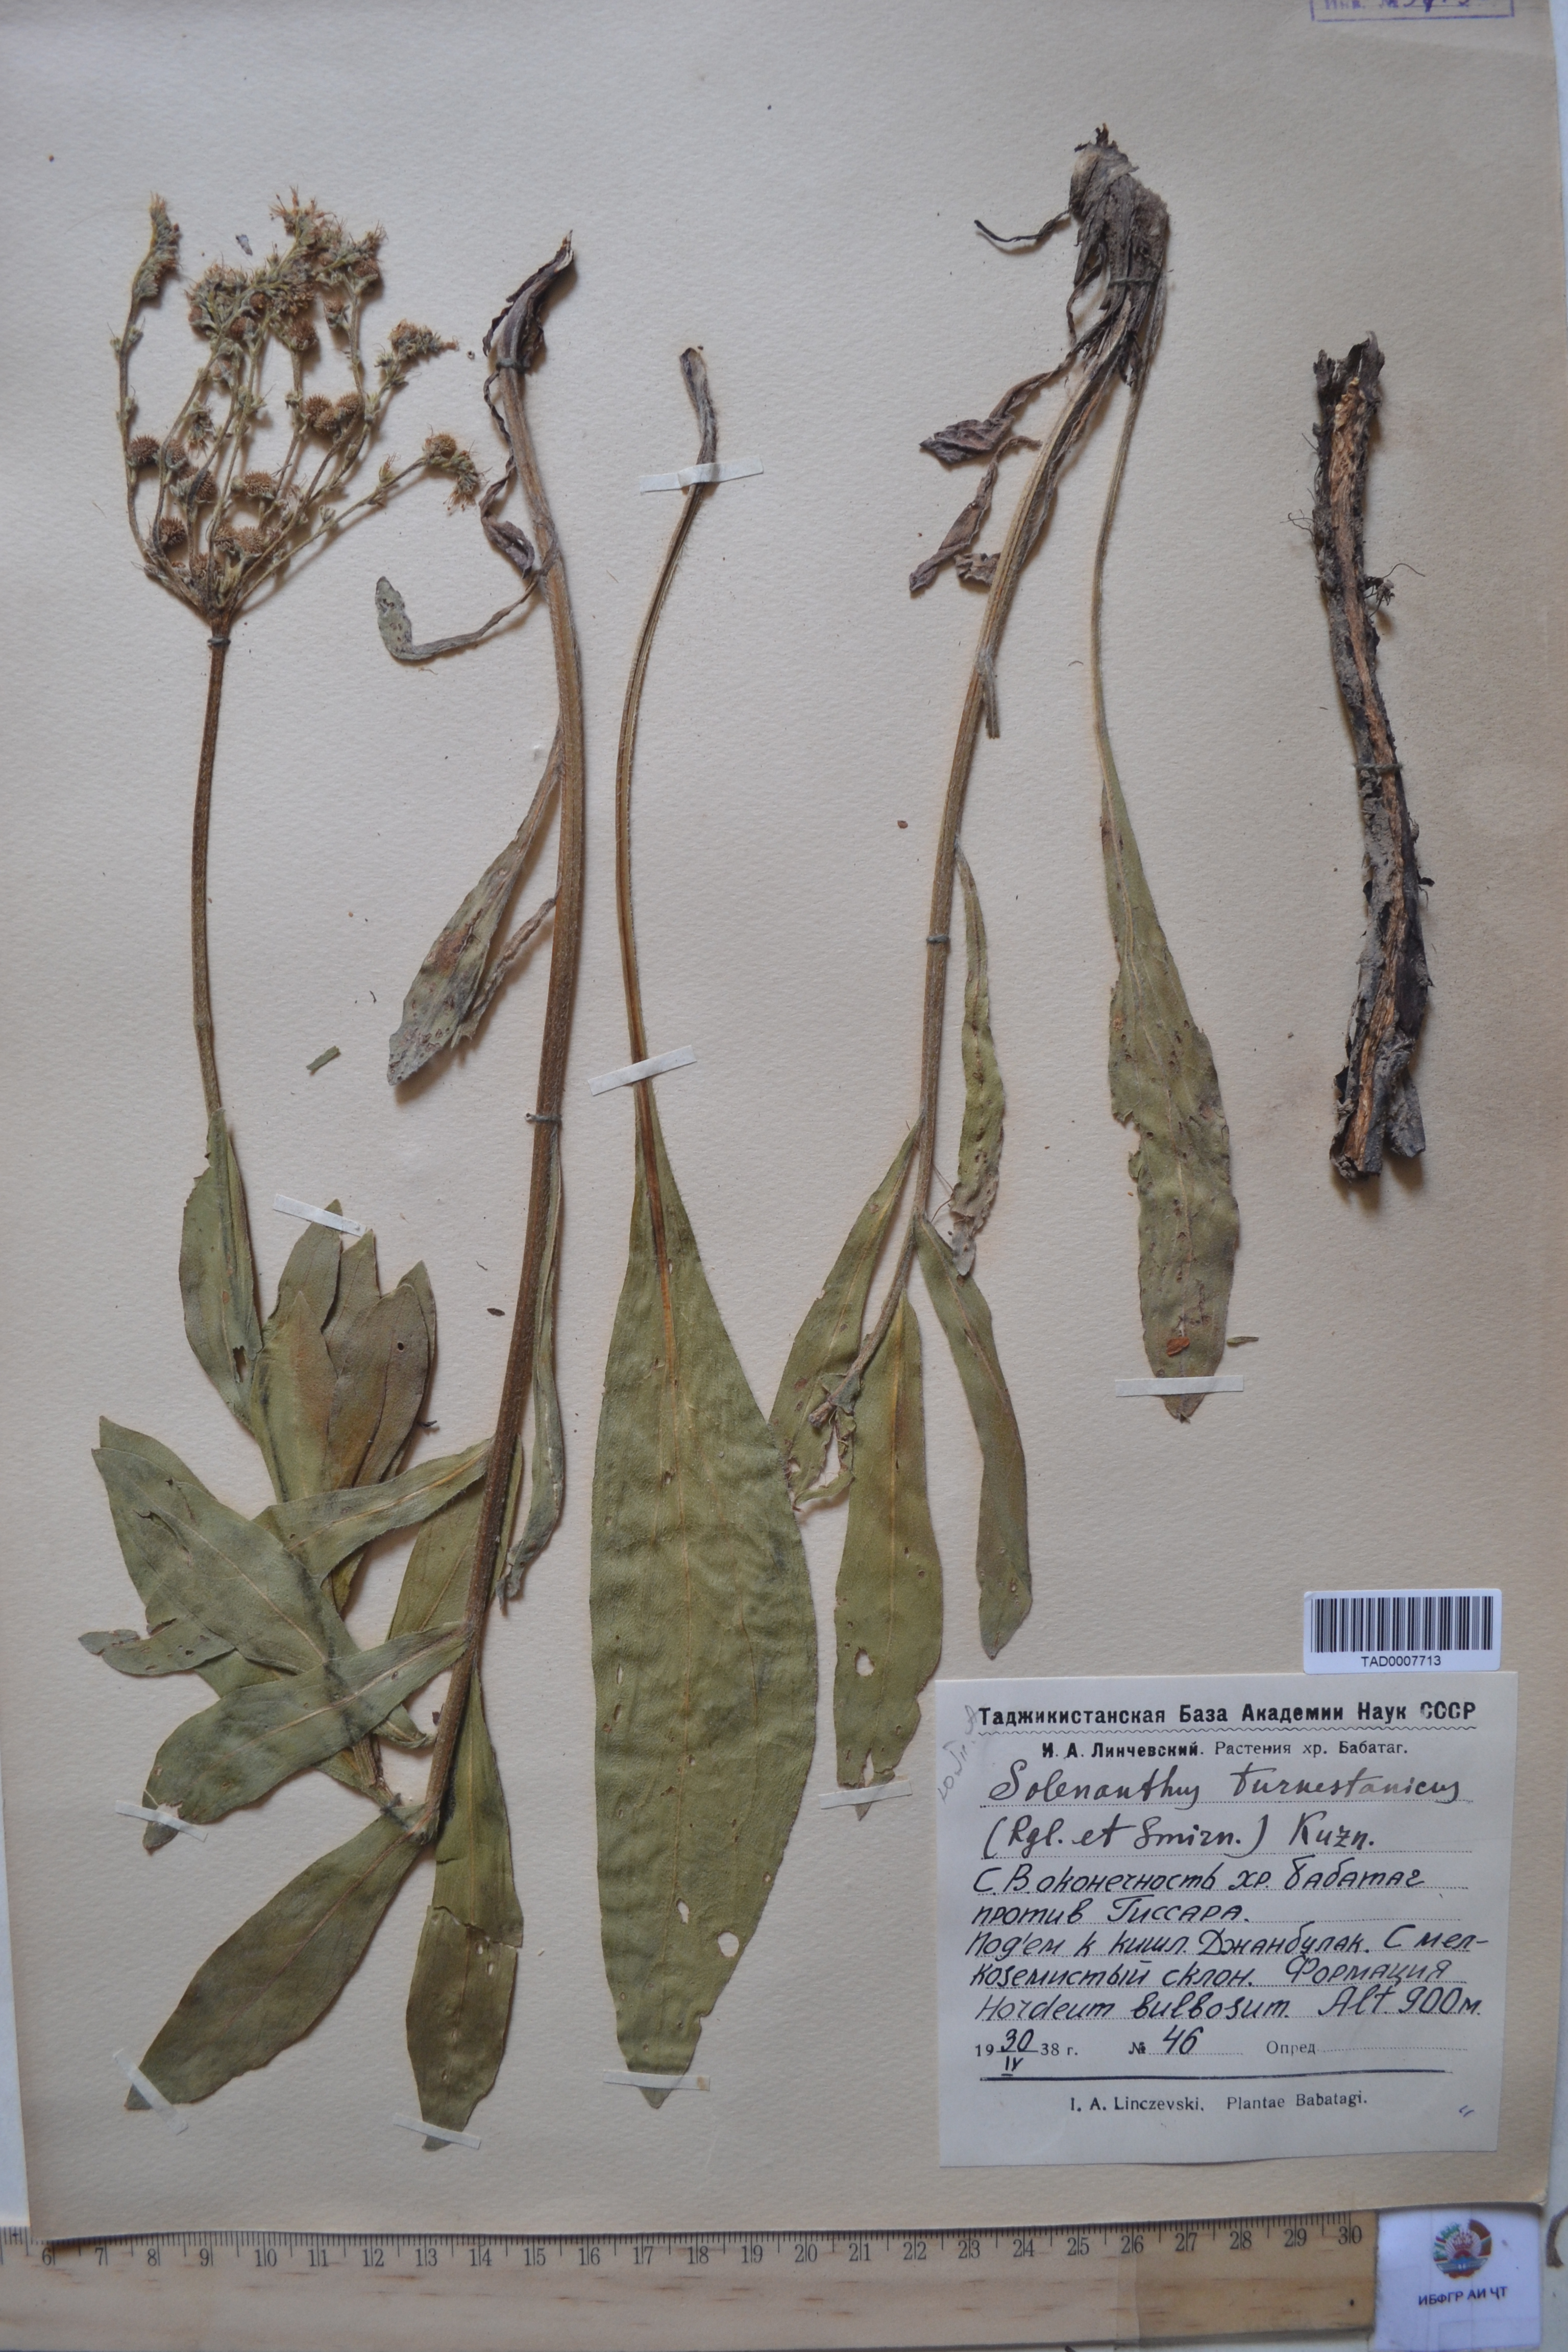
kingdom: Plantae
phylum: Tracheophyta
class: Magnoliopsida
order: Boraginales
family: Boraginaceae
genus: Solenanthus
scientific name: Solenanthus turkestanicus
